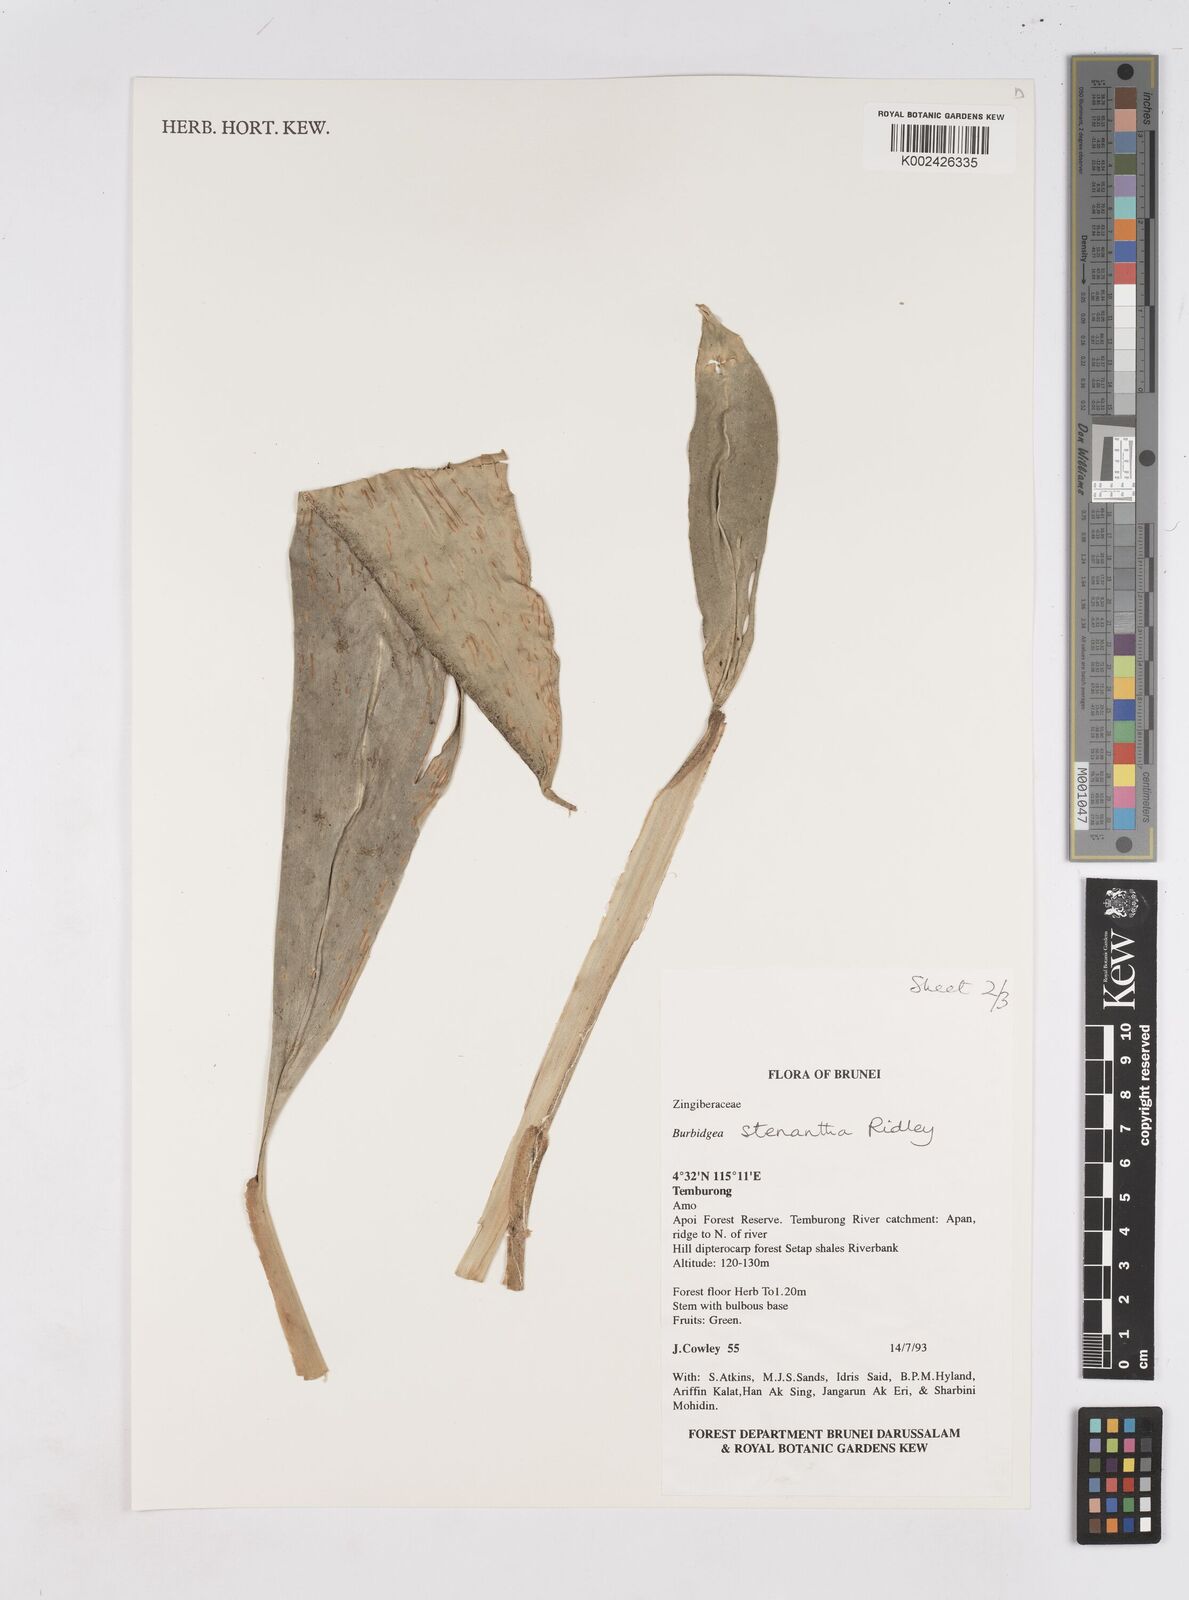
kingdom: Plantae
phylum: Tracheophyta
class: Liliopsida
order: Zingiberales
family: Zingiberaceae
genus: Burbidgea
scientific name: Burbidgea stenantha
